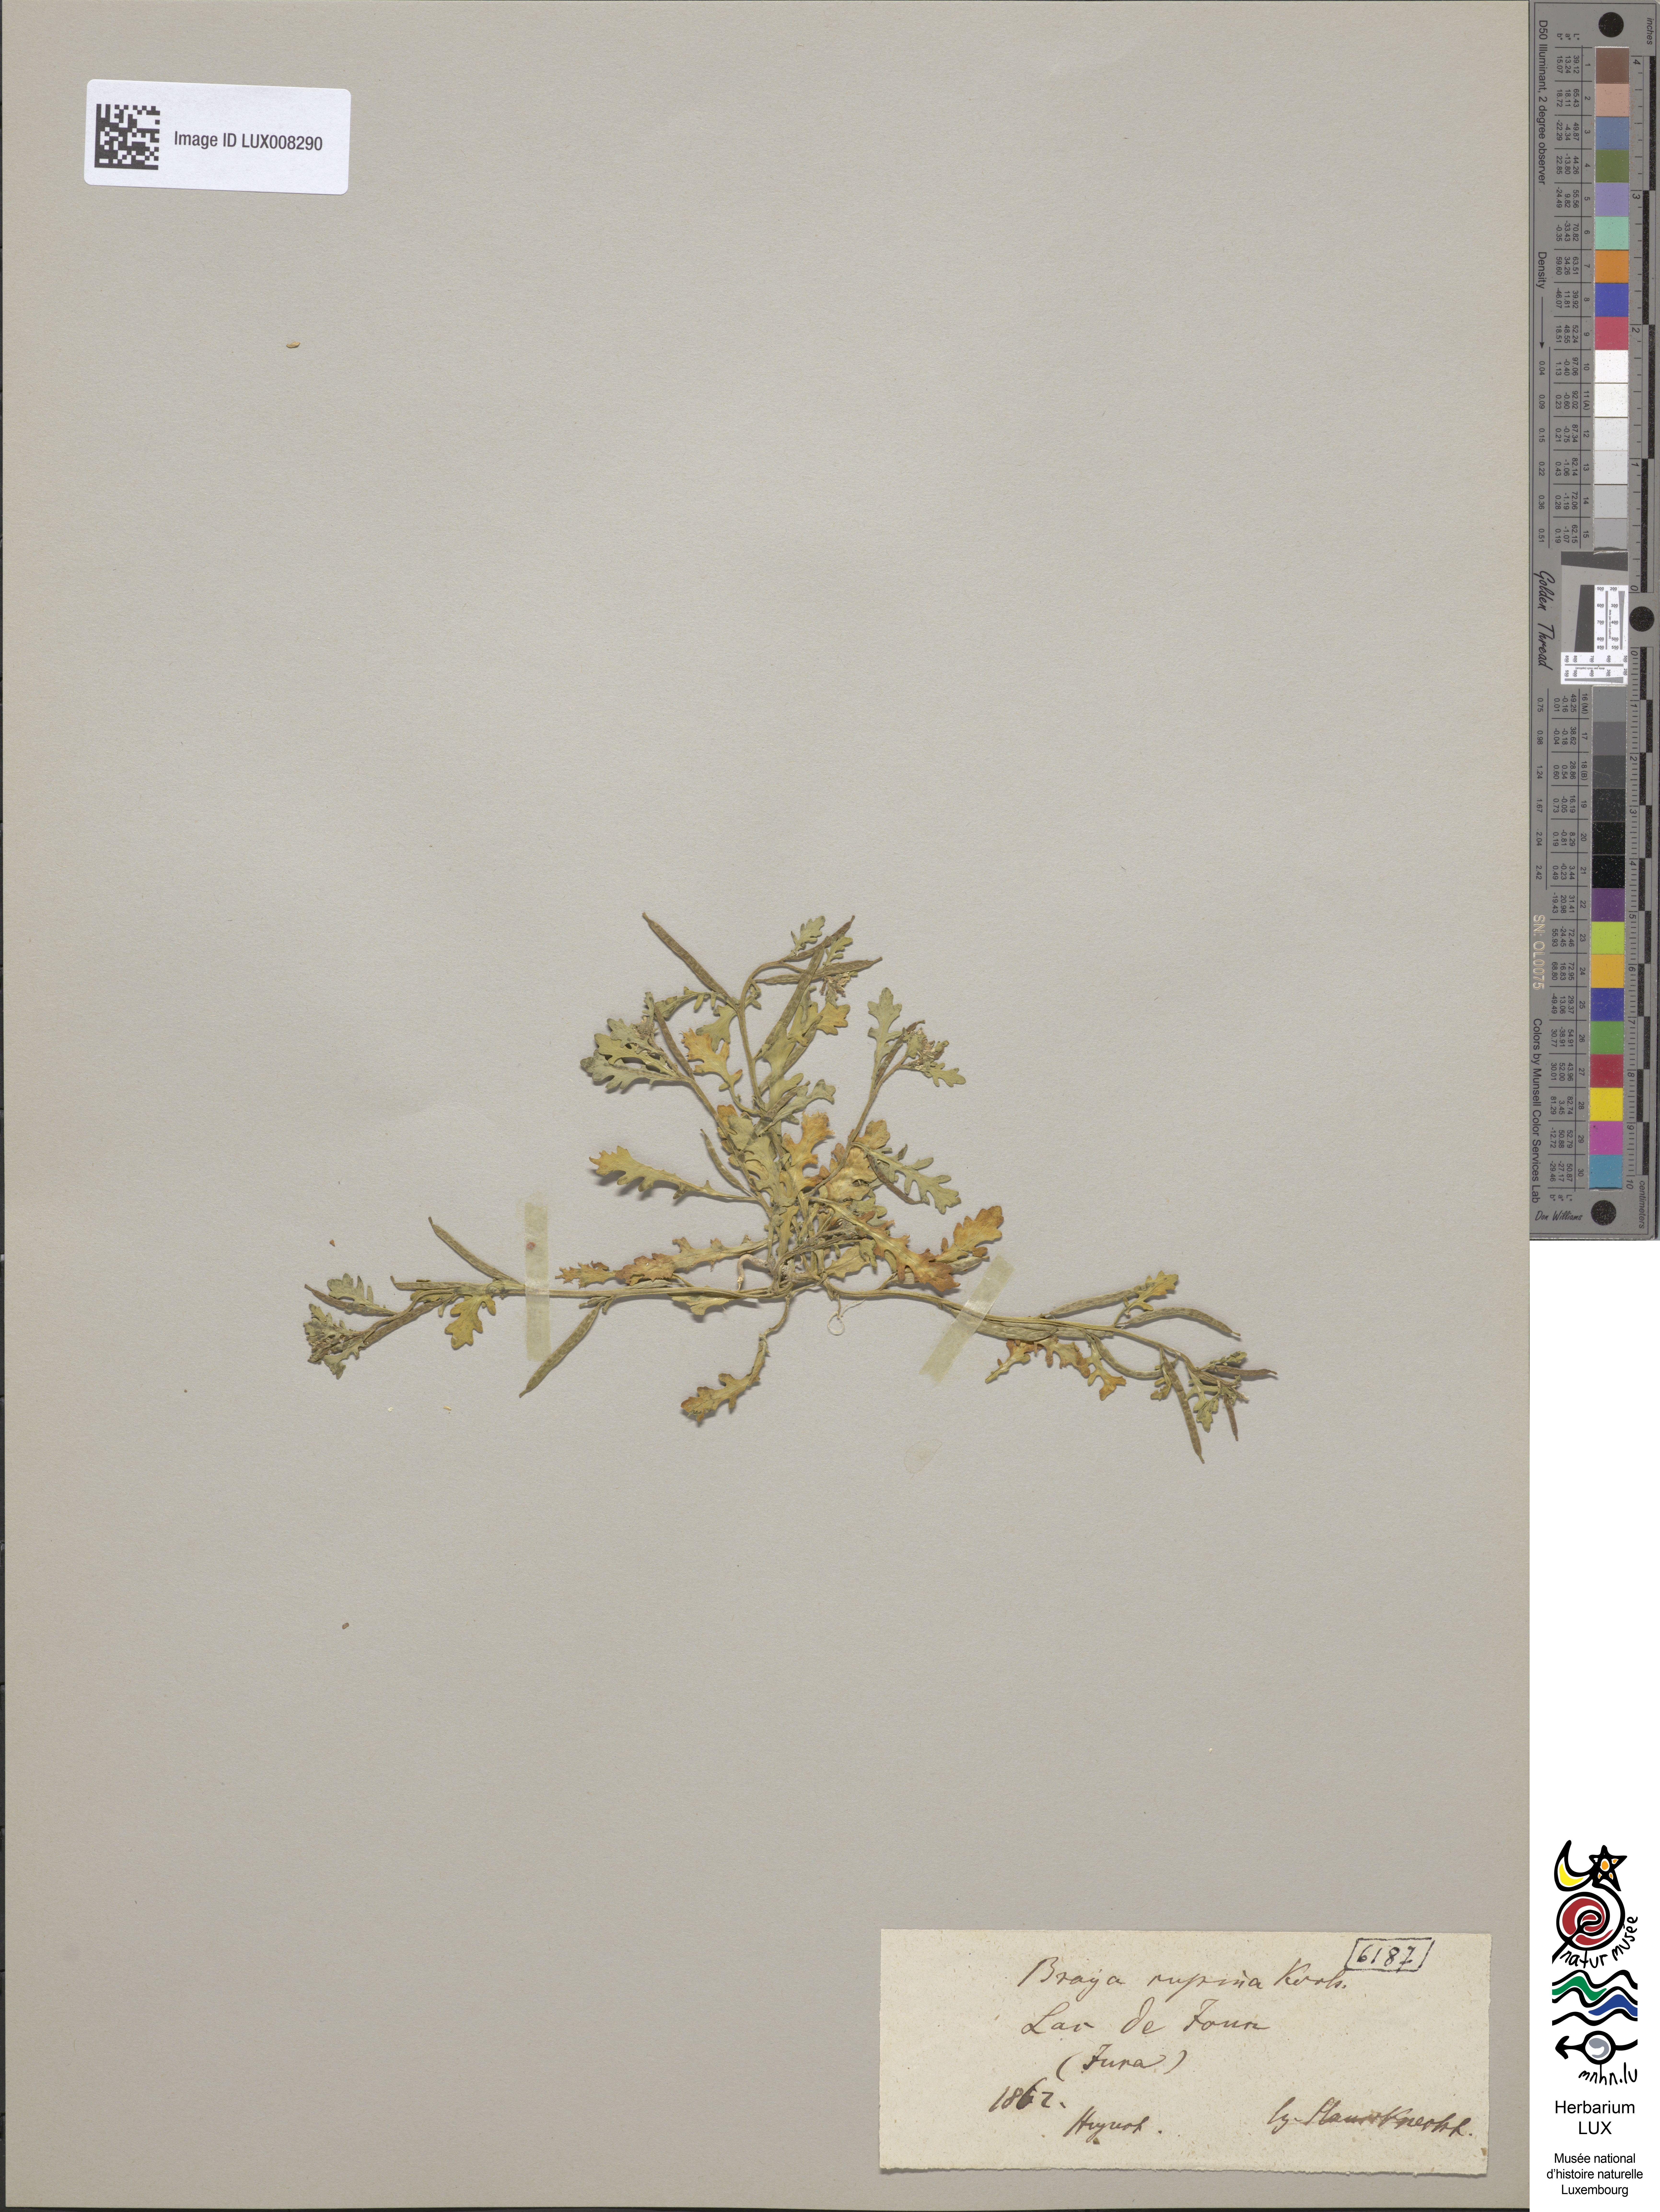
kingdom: Plantae
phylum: Tracheophyta
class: Magnoliopsida
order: Brassicales
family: Brassicaceae
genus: Erucastrum
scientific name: Erucastrum supinum
